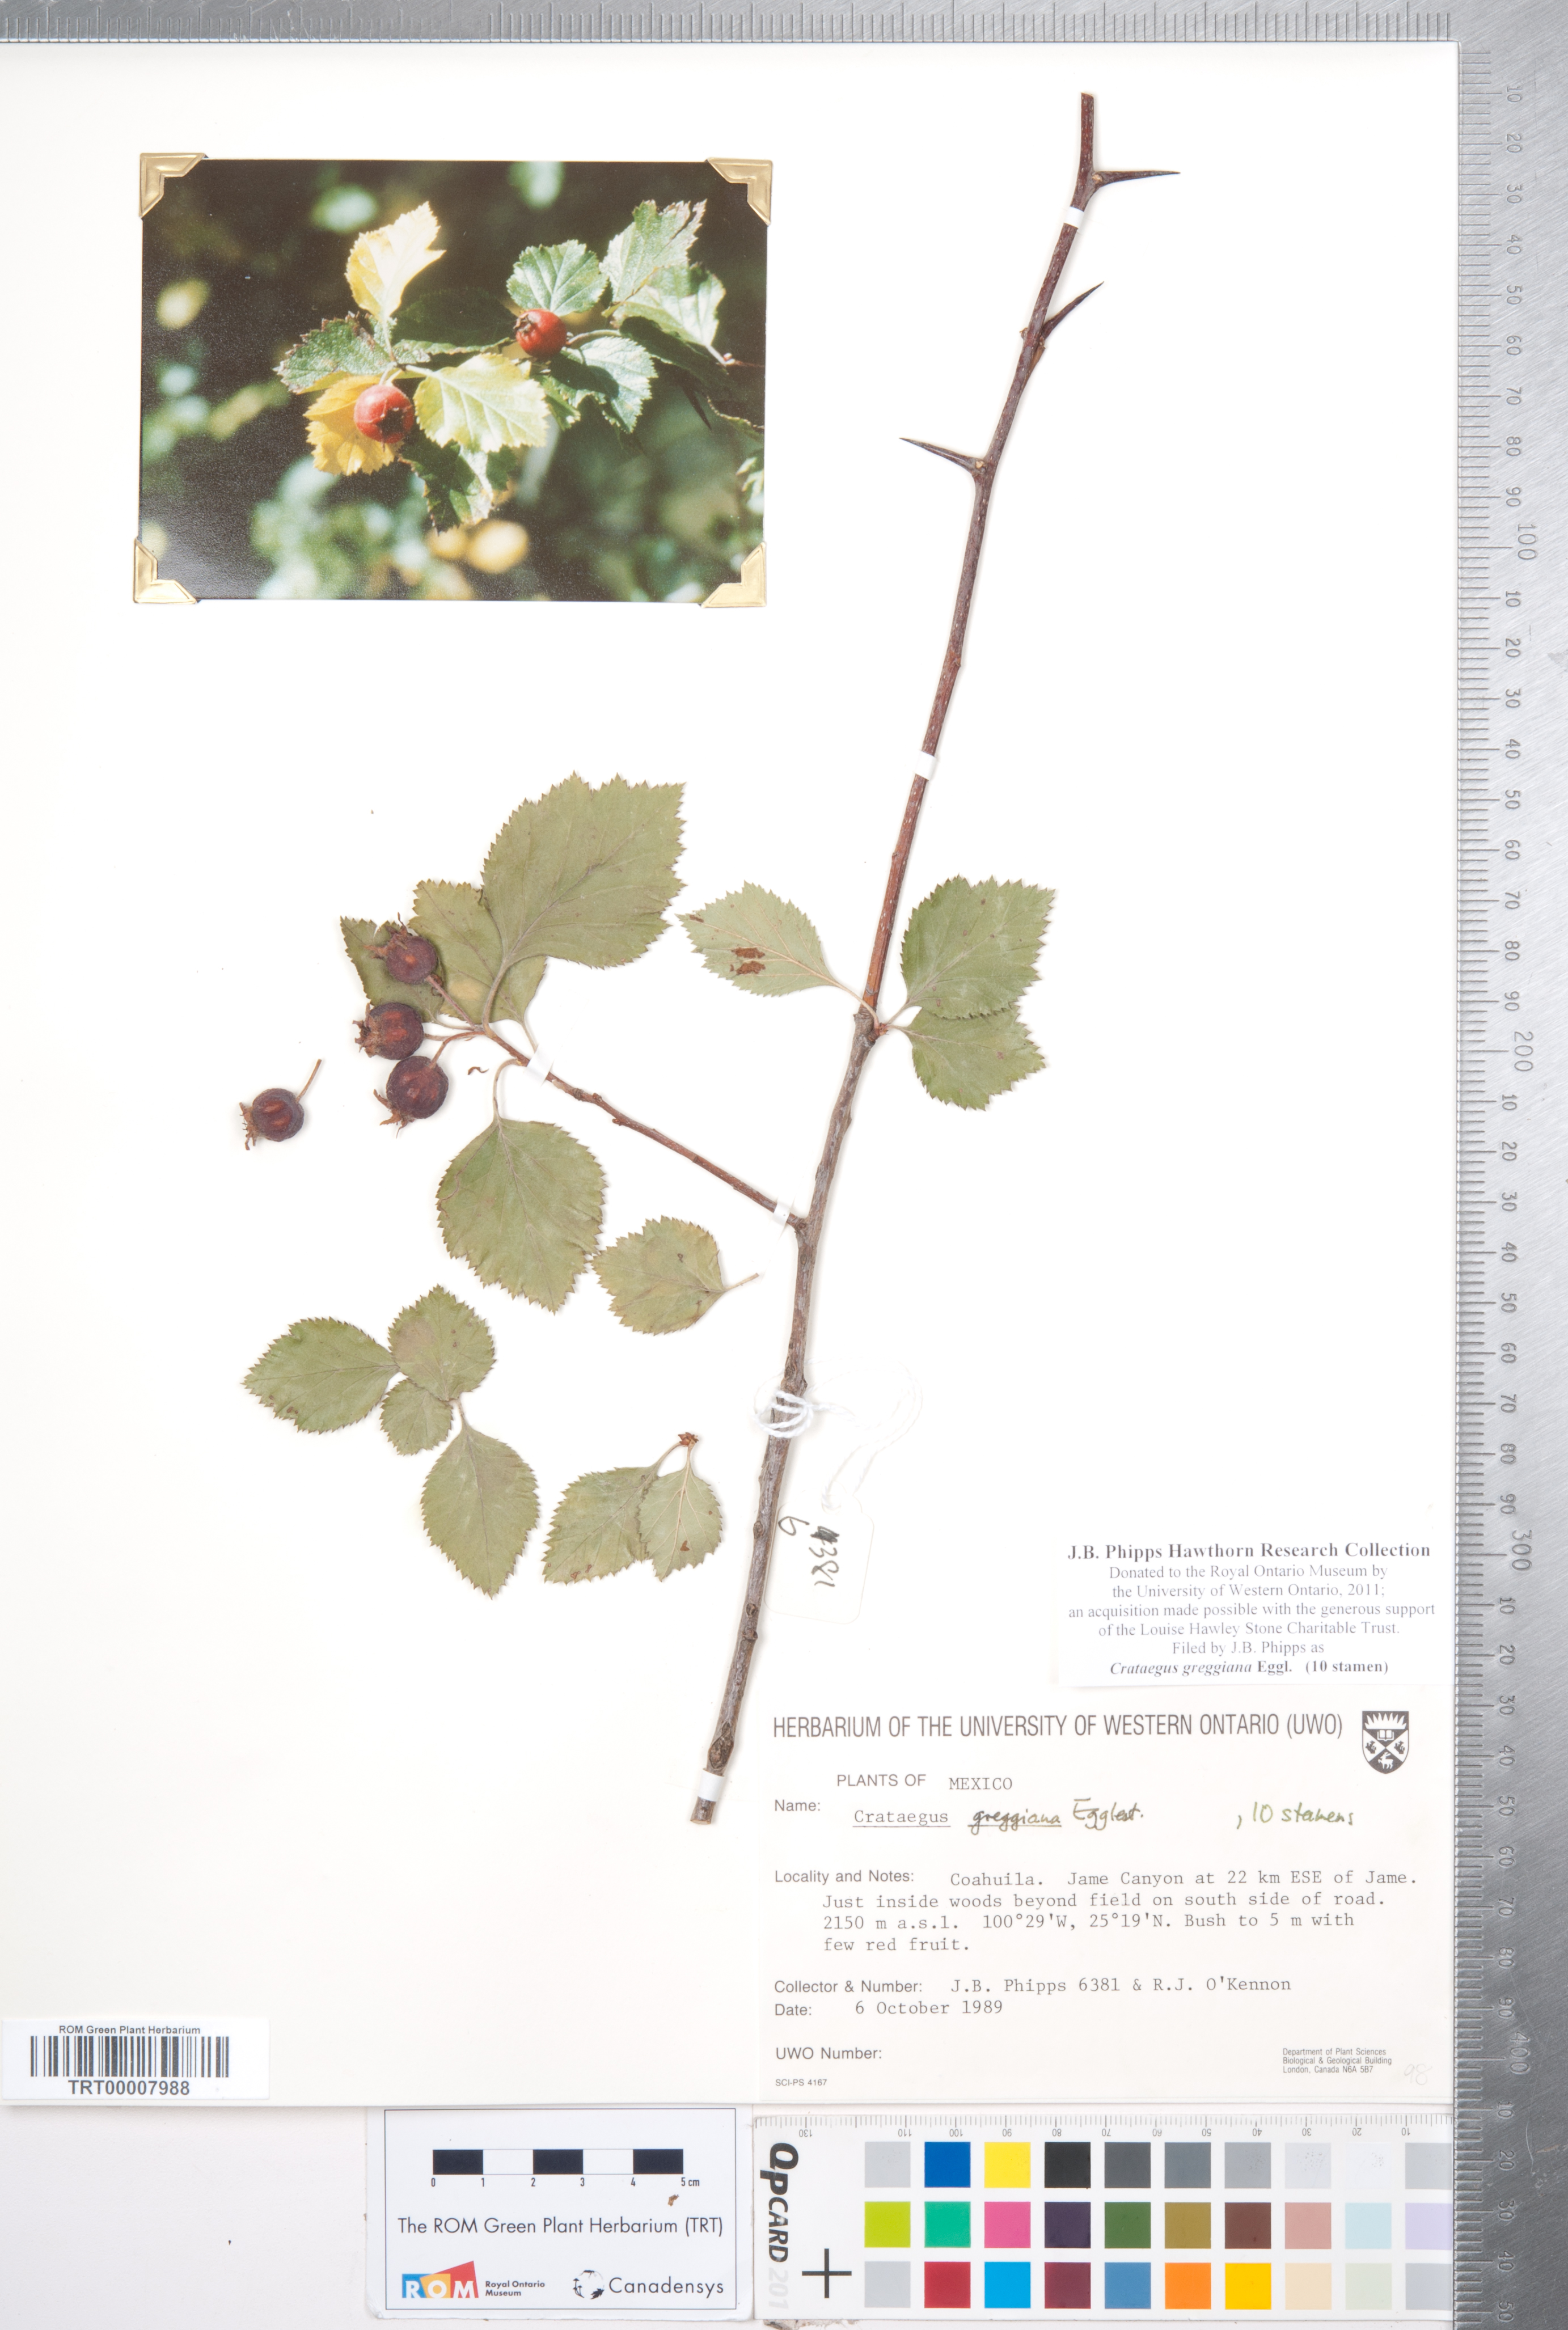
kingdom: Plantae
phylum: Tracheophyta
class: Magnoliopsida
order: Rosales
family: Rosaceae
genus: Crataegus
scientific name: Crataegus greggiana
